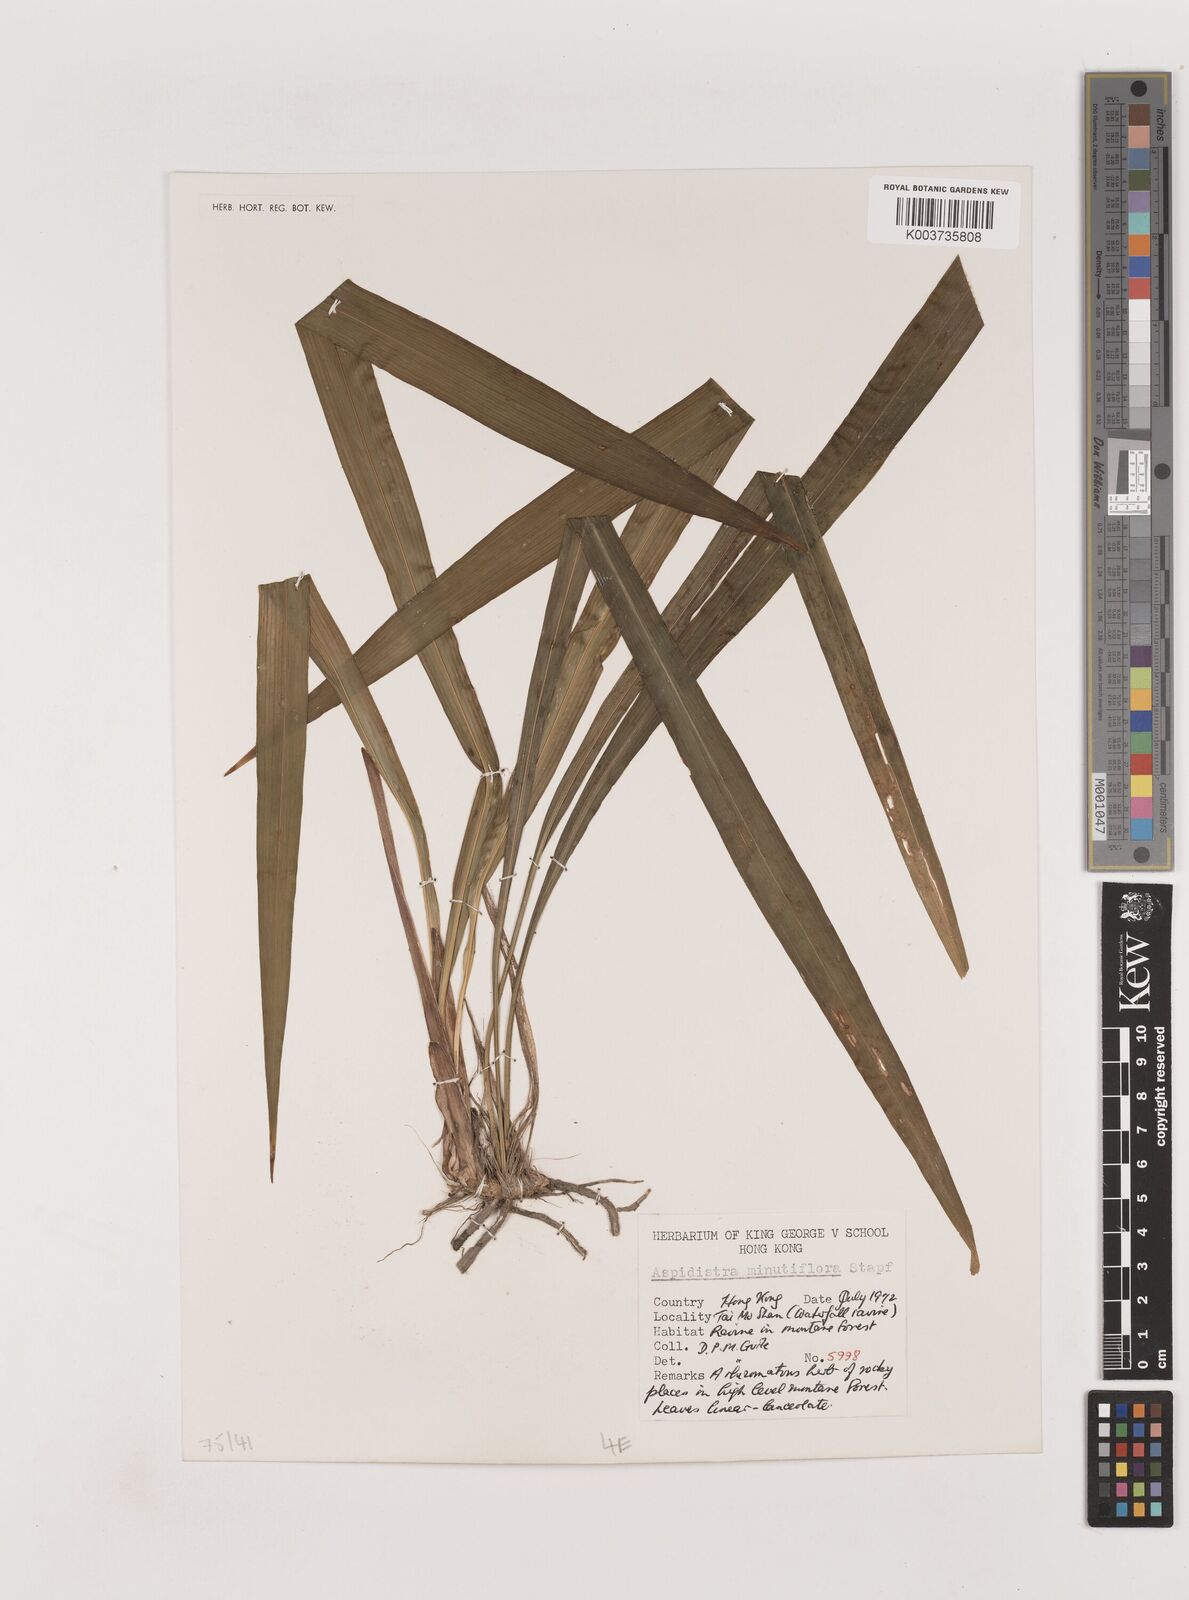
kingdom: Plantae
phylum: Tracheophyta
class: Liliopsida
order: Asparagales
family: Asparagaceae
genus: Aspidistra
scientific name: Aspidistra minutiflora
